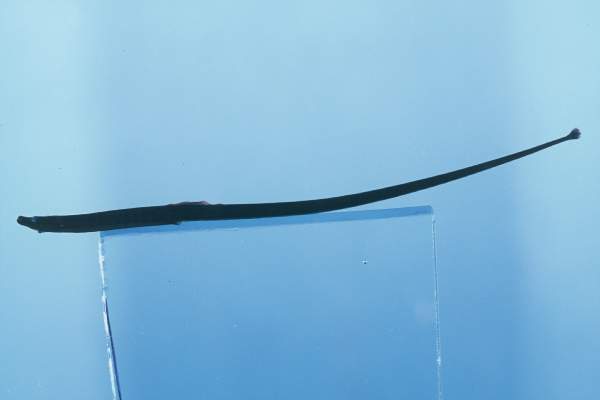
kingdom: Animalia
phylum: Chordata
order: Syngnathiformes
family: Syngnathidae
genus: Nannocampus
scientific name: Nannocampus elegans
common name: Elegant pipefish
